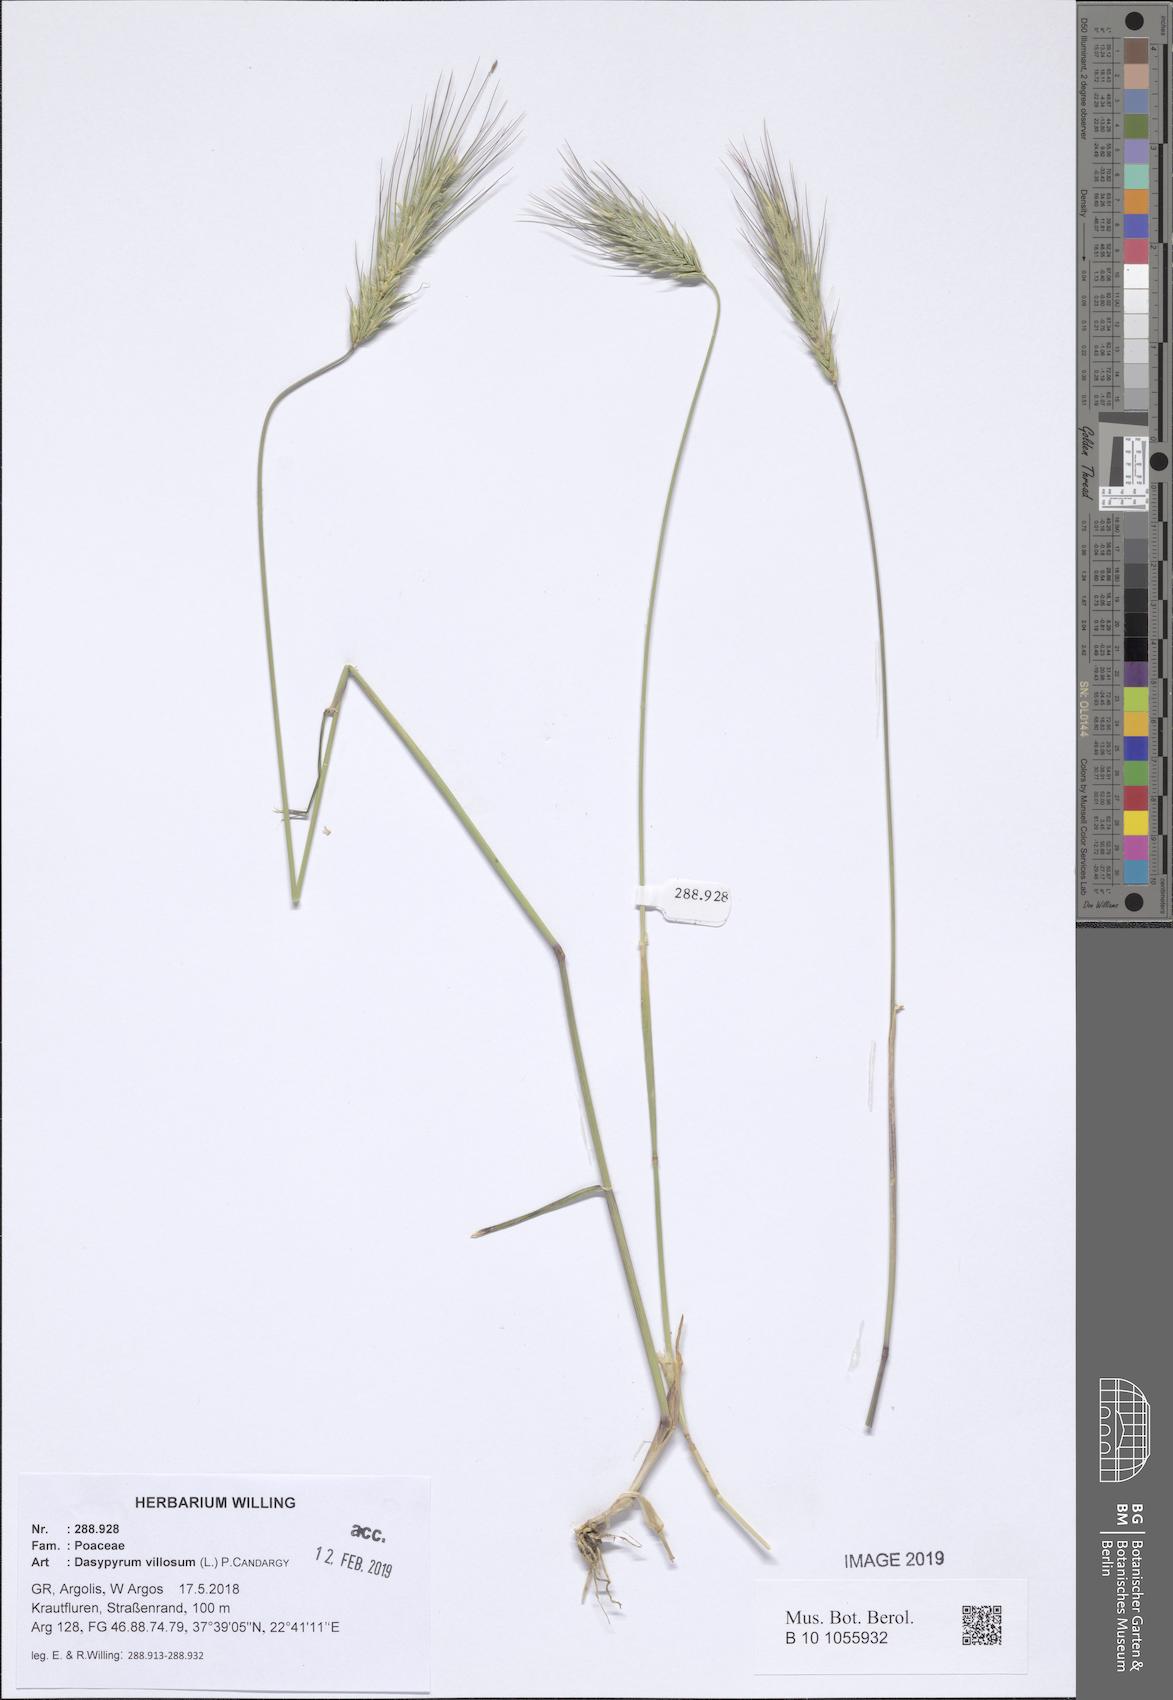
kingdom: Plantae
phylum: Tracheophyta
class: Liliopsida
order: Poales
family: Poaceae
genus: Dasypyrum
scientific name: Dasypyrum villosum
